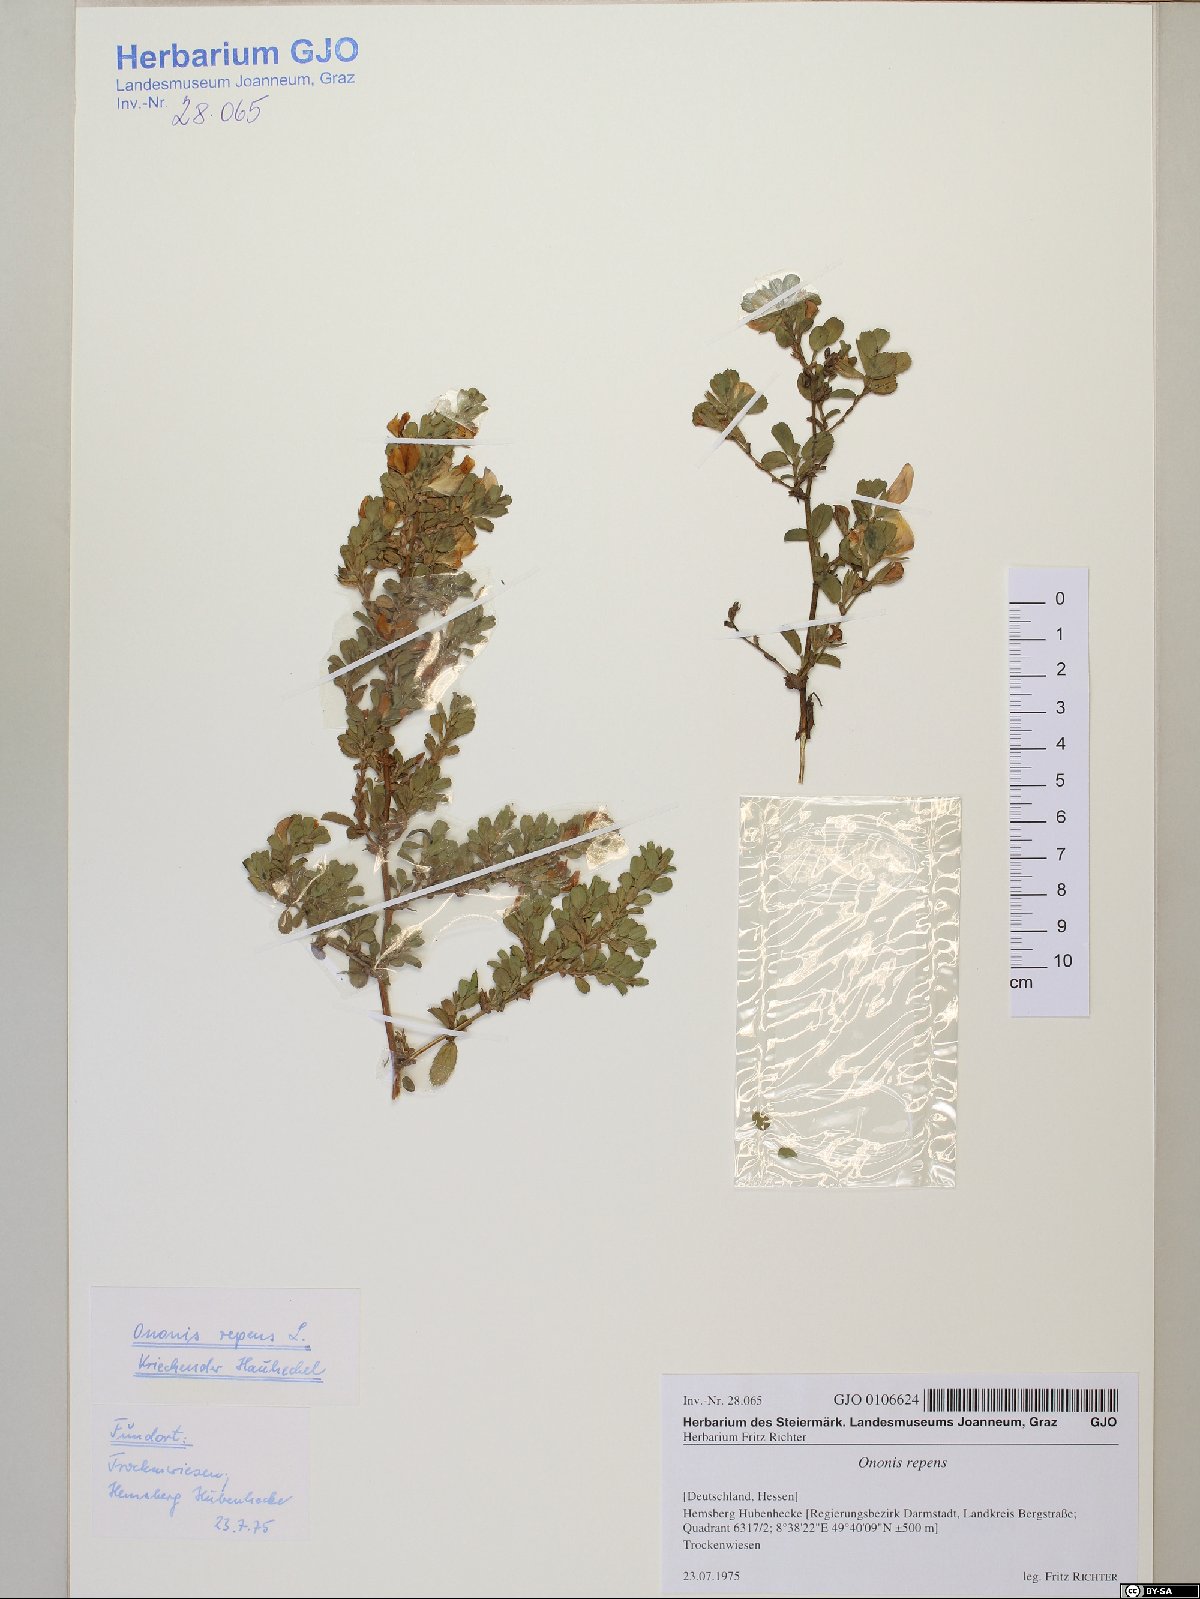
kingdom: Plantae
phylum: Tracheophyta
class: Magnoliopsida
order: Fabales
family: Fabaceae
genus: Ononis
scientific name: Ononis spinosa
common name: Spiny restharrow
